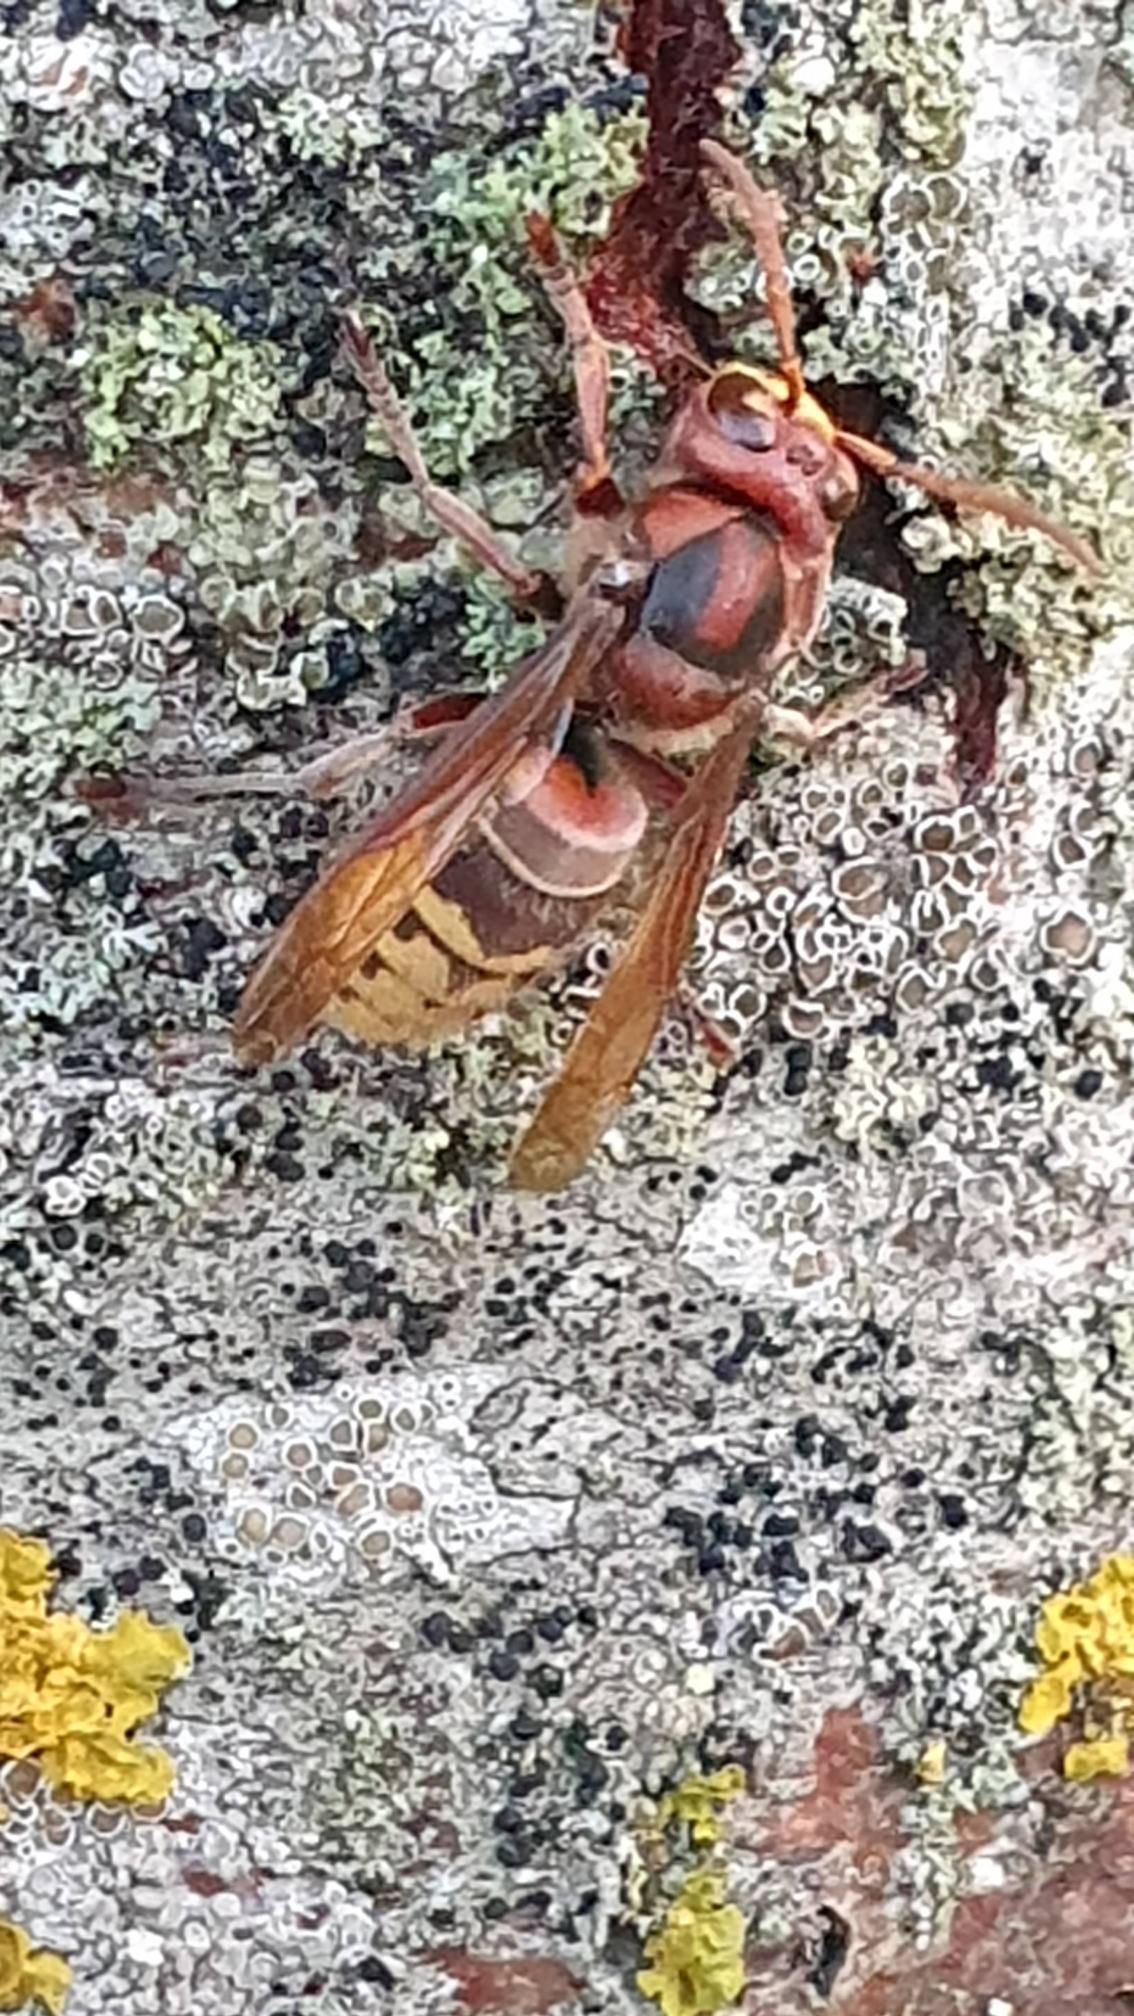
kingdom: Animalia
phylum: Arthropoda
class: Insecta
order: Hymenoptera
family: Vespidae
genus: Vespa
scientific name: Vespa crabro
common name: Stor gedehams
